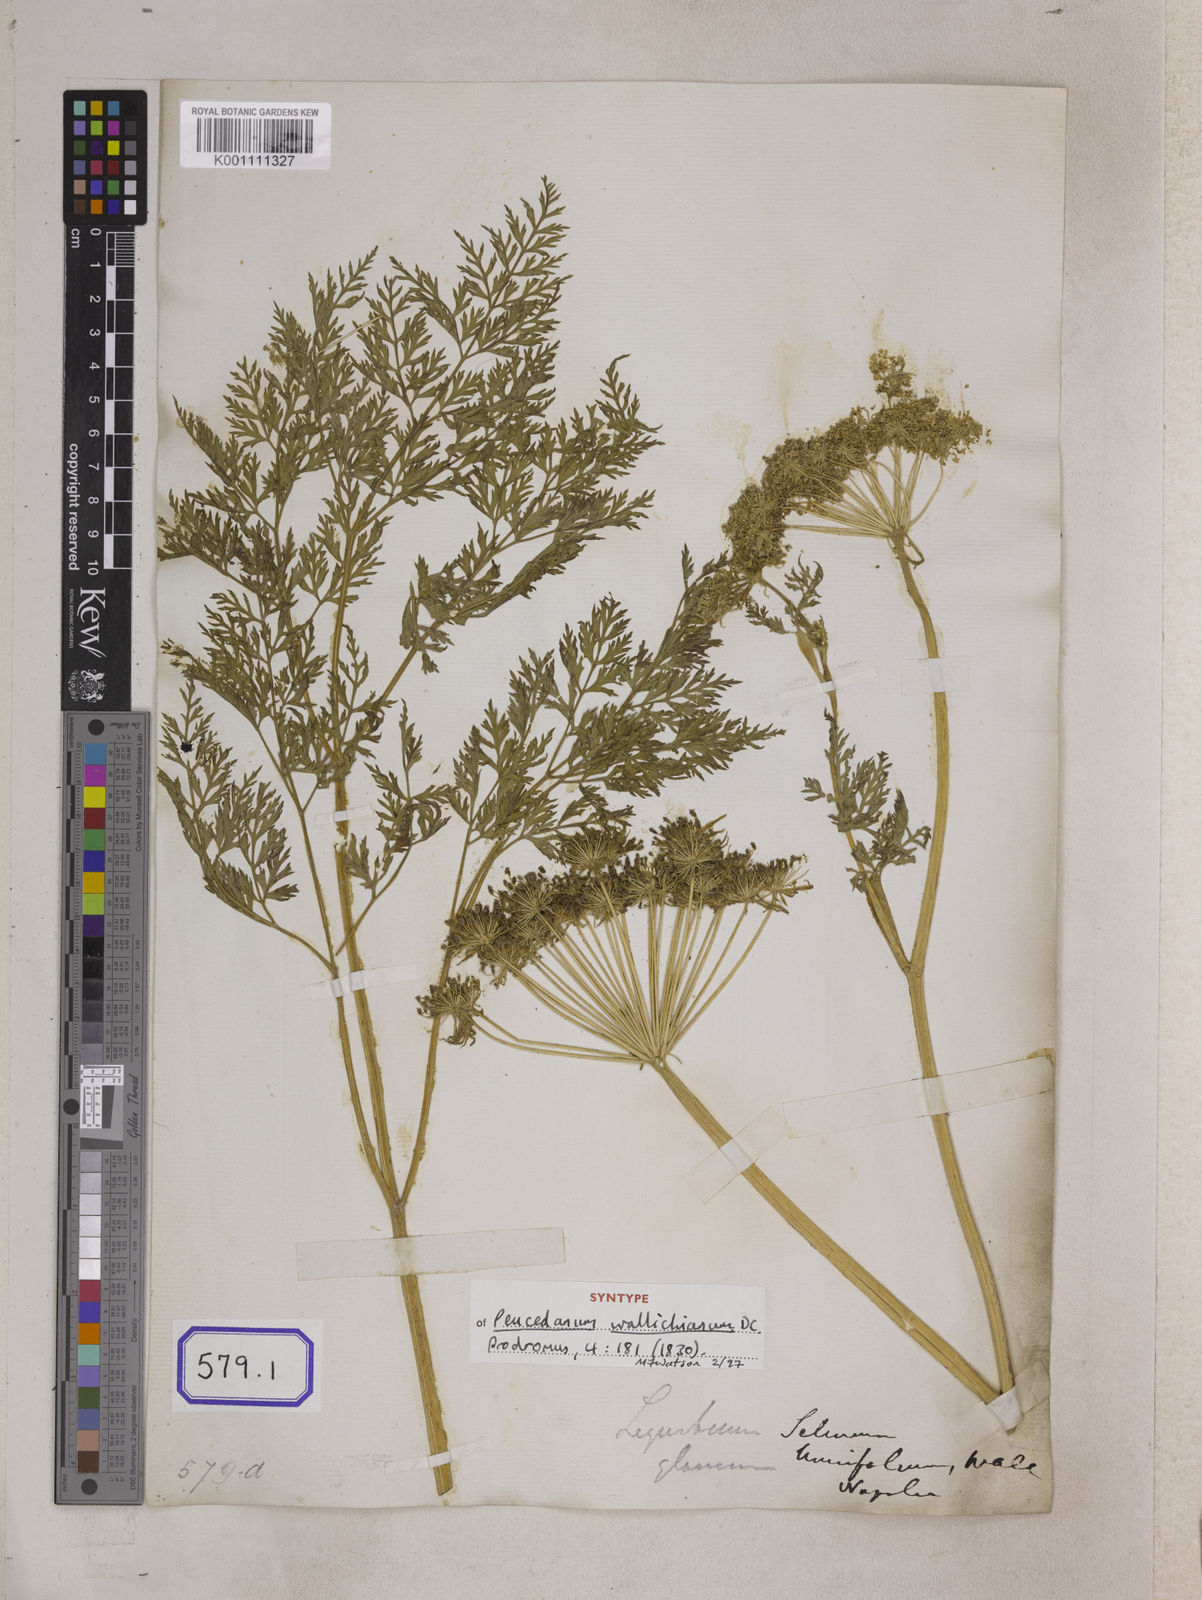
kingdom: Plantae
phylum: Tracheophyta
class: Magnoliopsida
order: Apiales
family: Apiaceae
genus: Selinum
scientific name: Selinum
